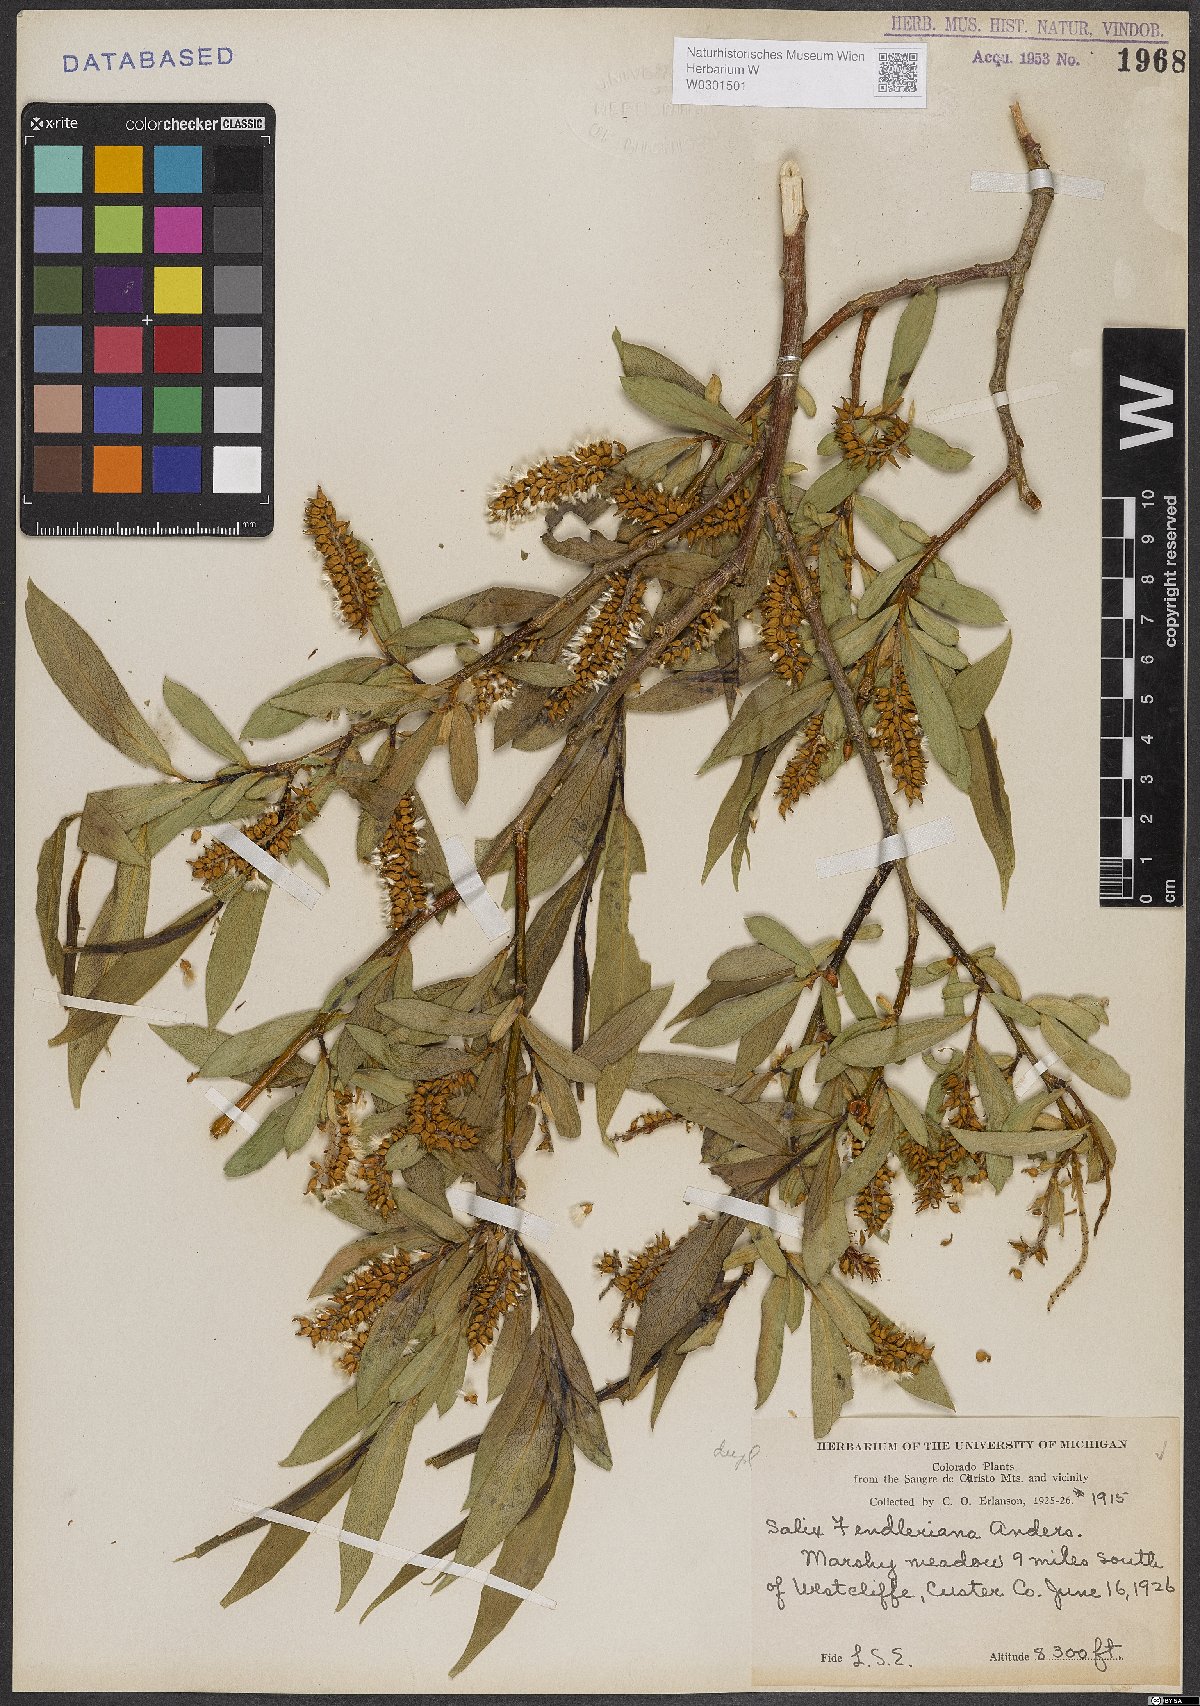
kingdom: Plantae
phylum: Tracheophyta
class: Magnoliopsida
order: Malpighiales
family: Salicaceae
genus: Salix
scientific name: Salix lucida
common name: Shining willow
